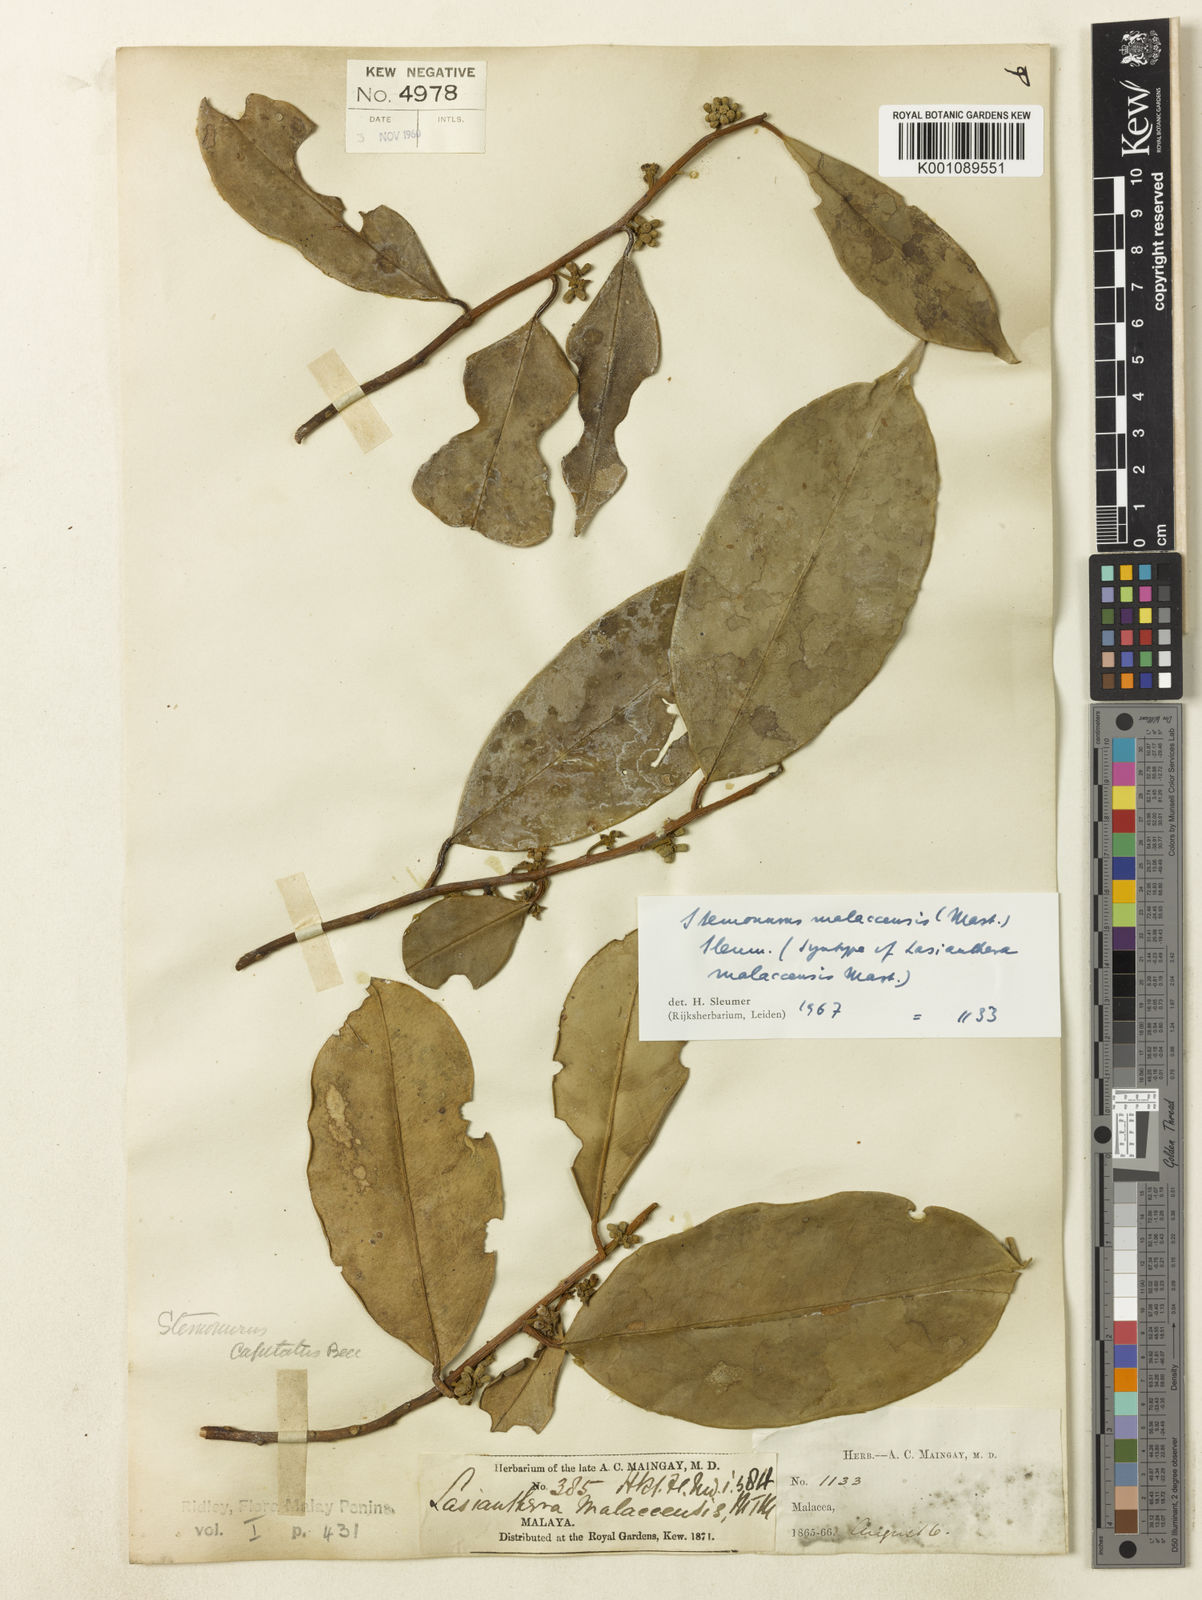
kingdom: Plantae
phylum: Tracheophyta
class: Magnoliopsida
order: Cardiopteridales
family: Stemonuraceae
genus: Stemonurus
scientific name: Stemonurus malaccensis
